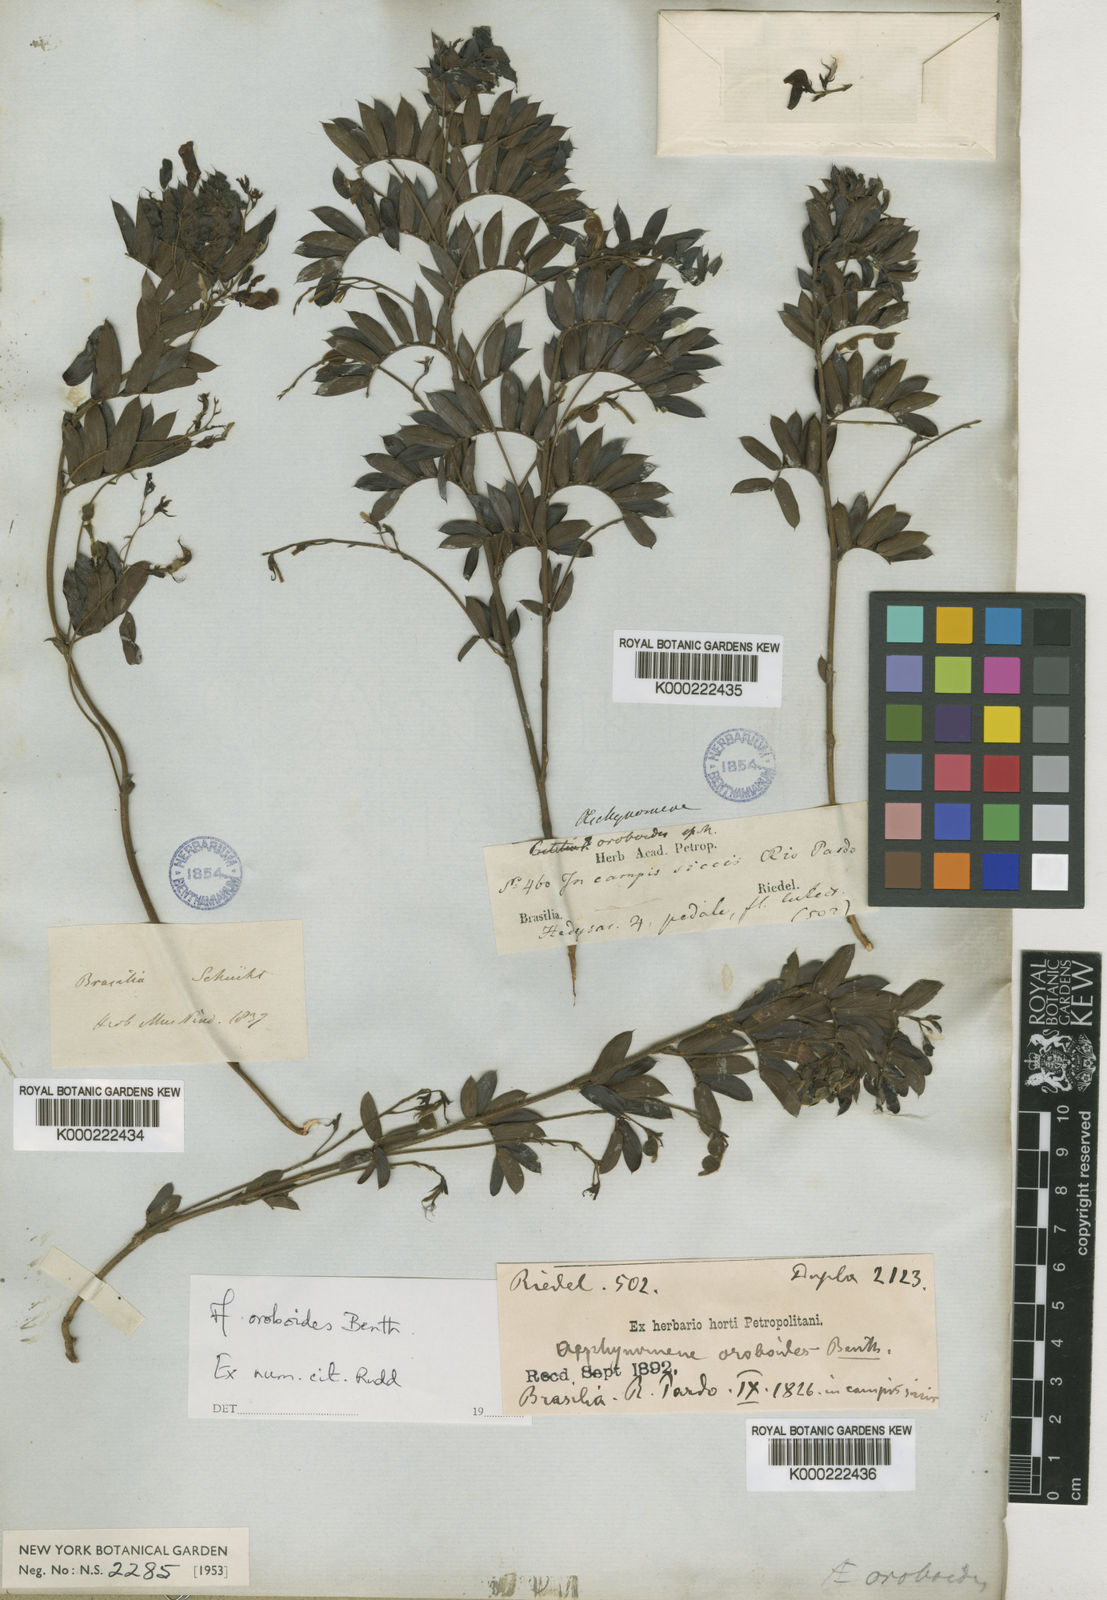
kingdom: Plantae
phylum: Tracheophyta
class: Magnoliopsida
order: Fabales
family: Fabaceae
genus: Ctenodon
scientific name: Ctenodon oroboides
